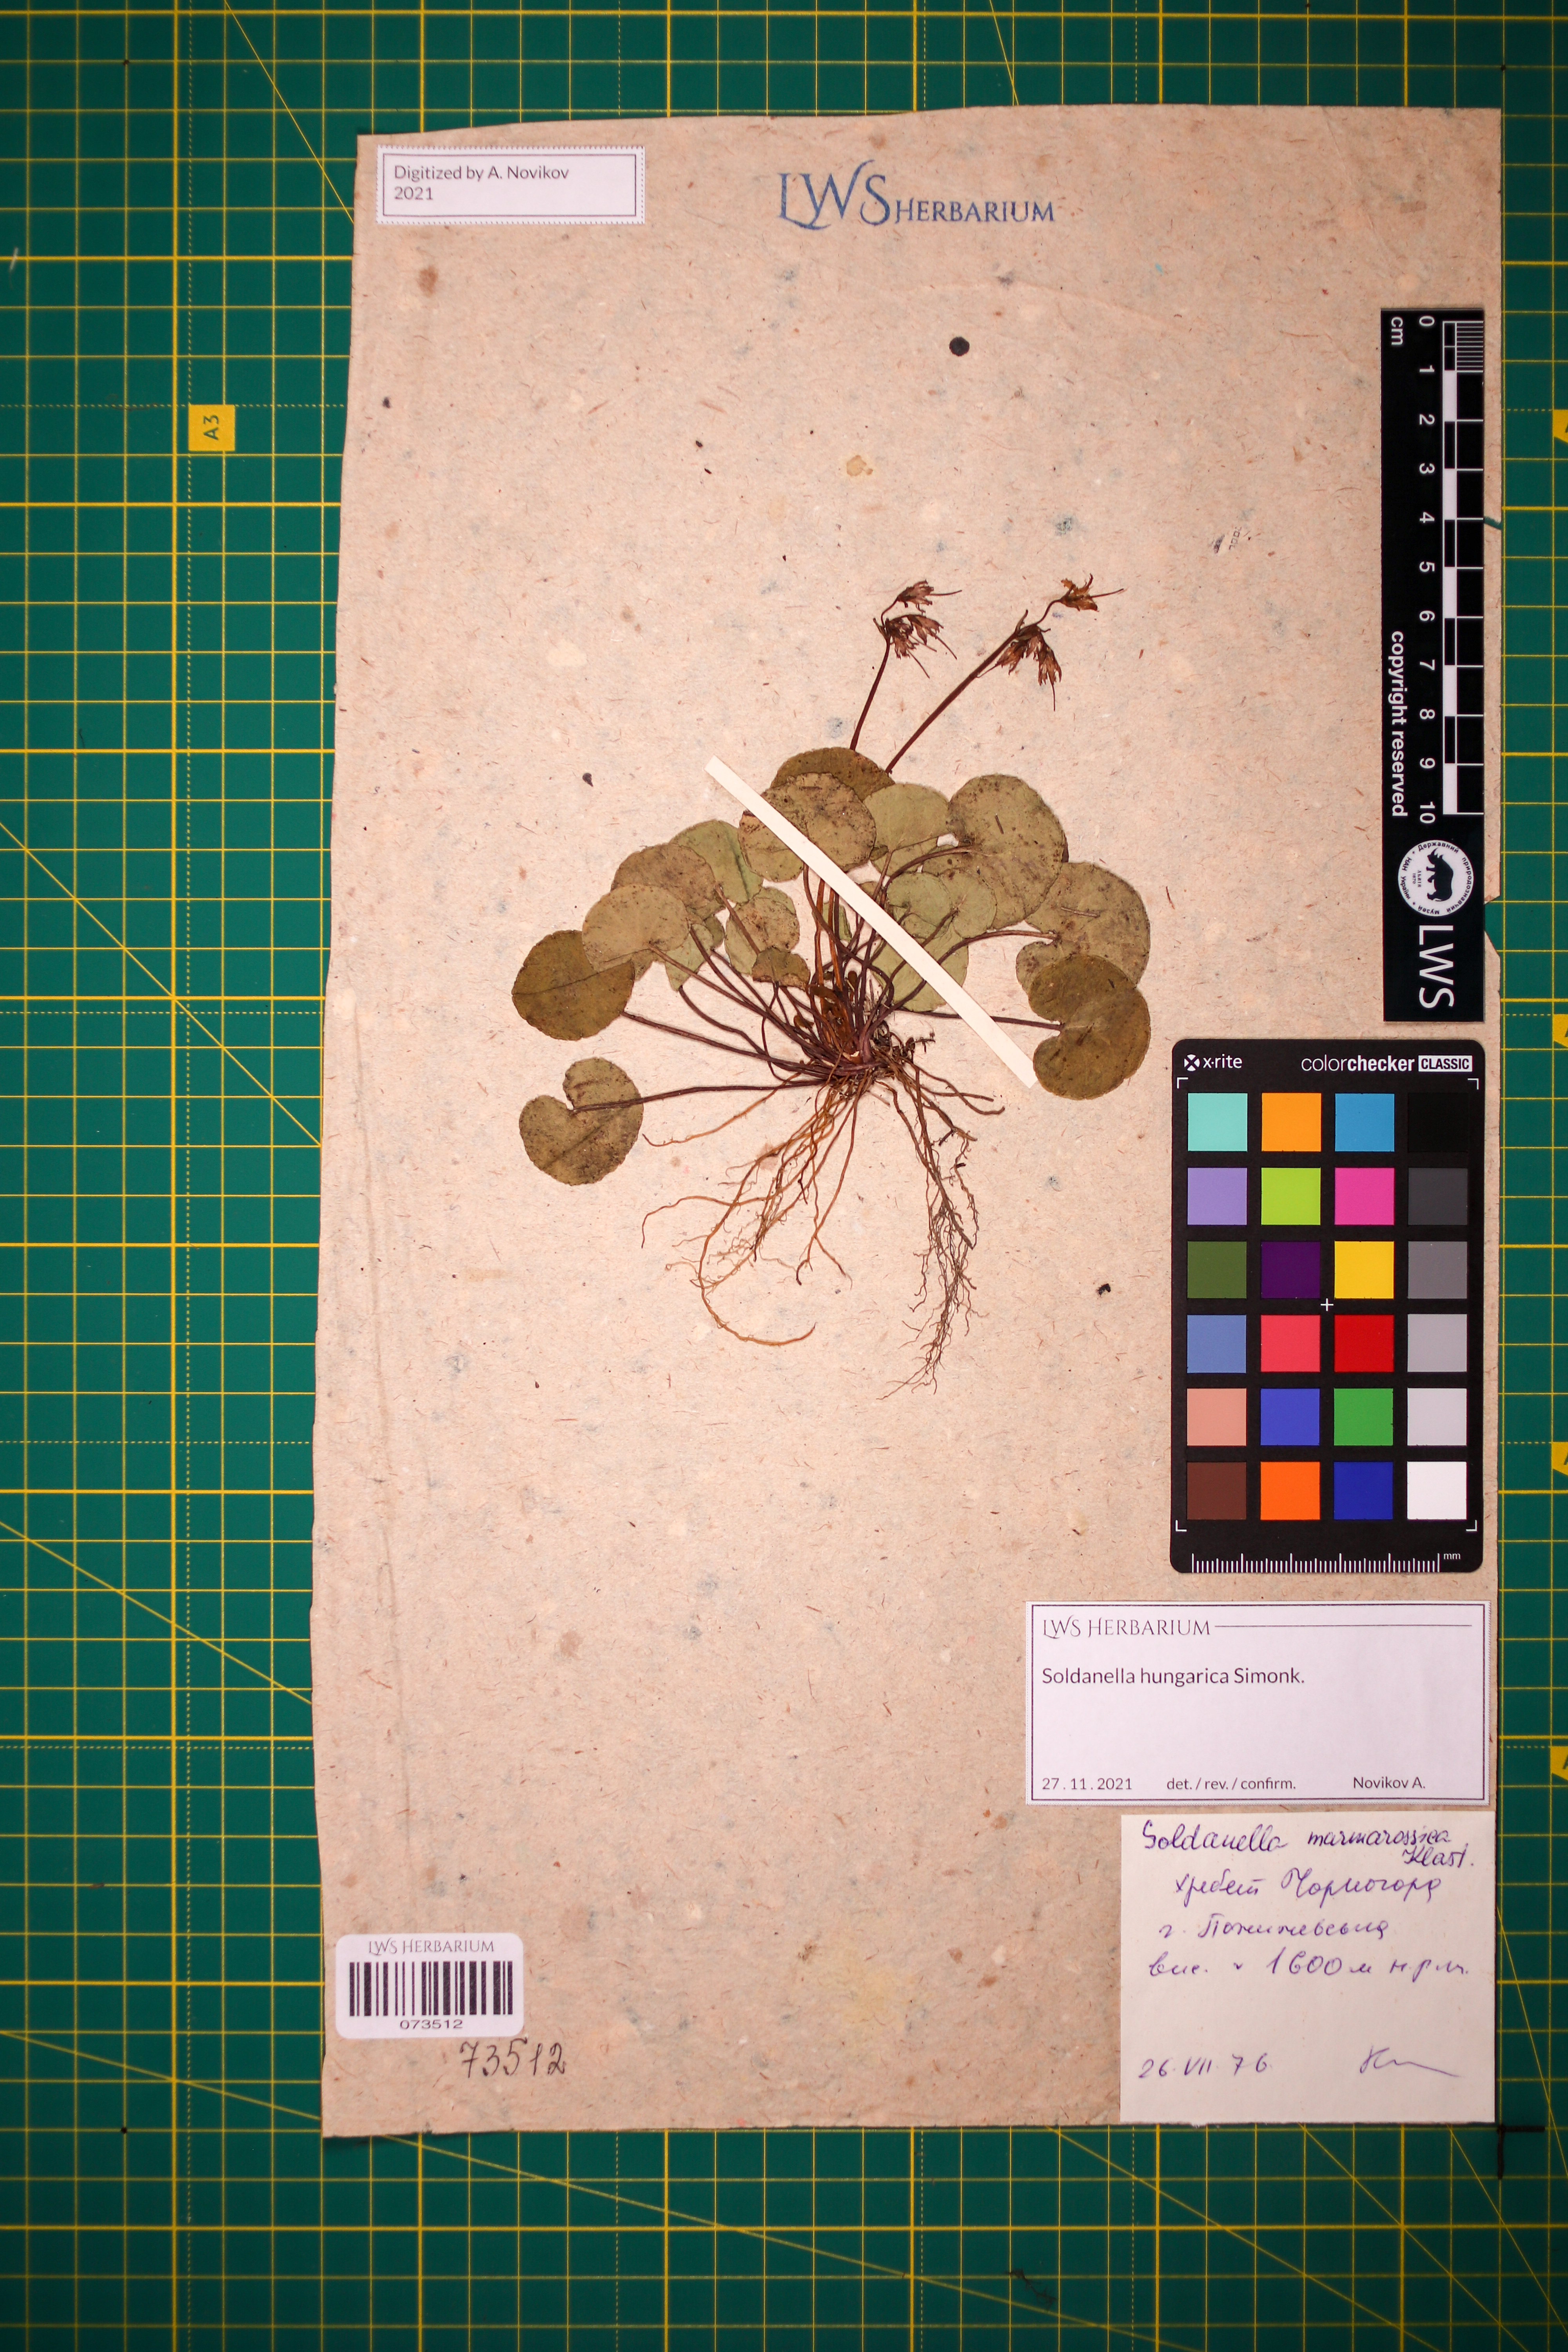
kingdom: Plantae
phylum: Tracheophyta
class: Magnoliopsida
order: Ericales
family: Primulaceae
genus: Soldanella
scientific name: Soldanella hungarica
